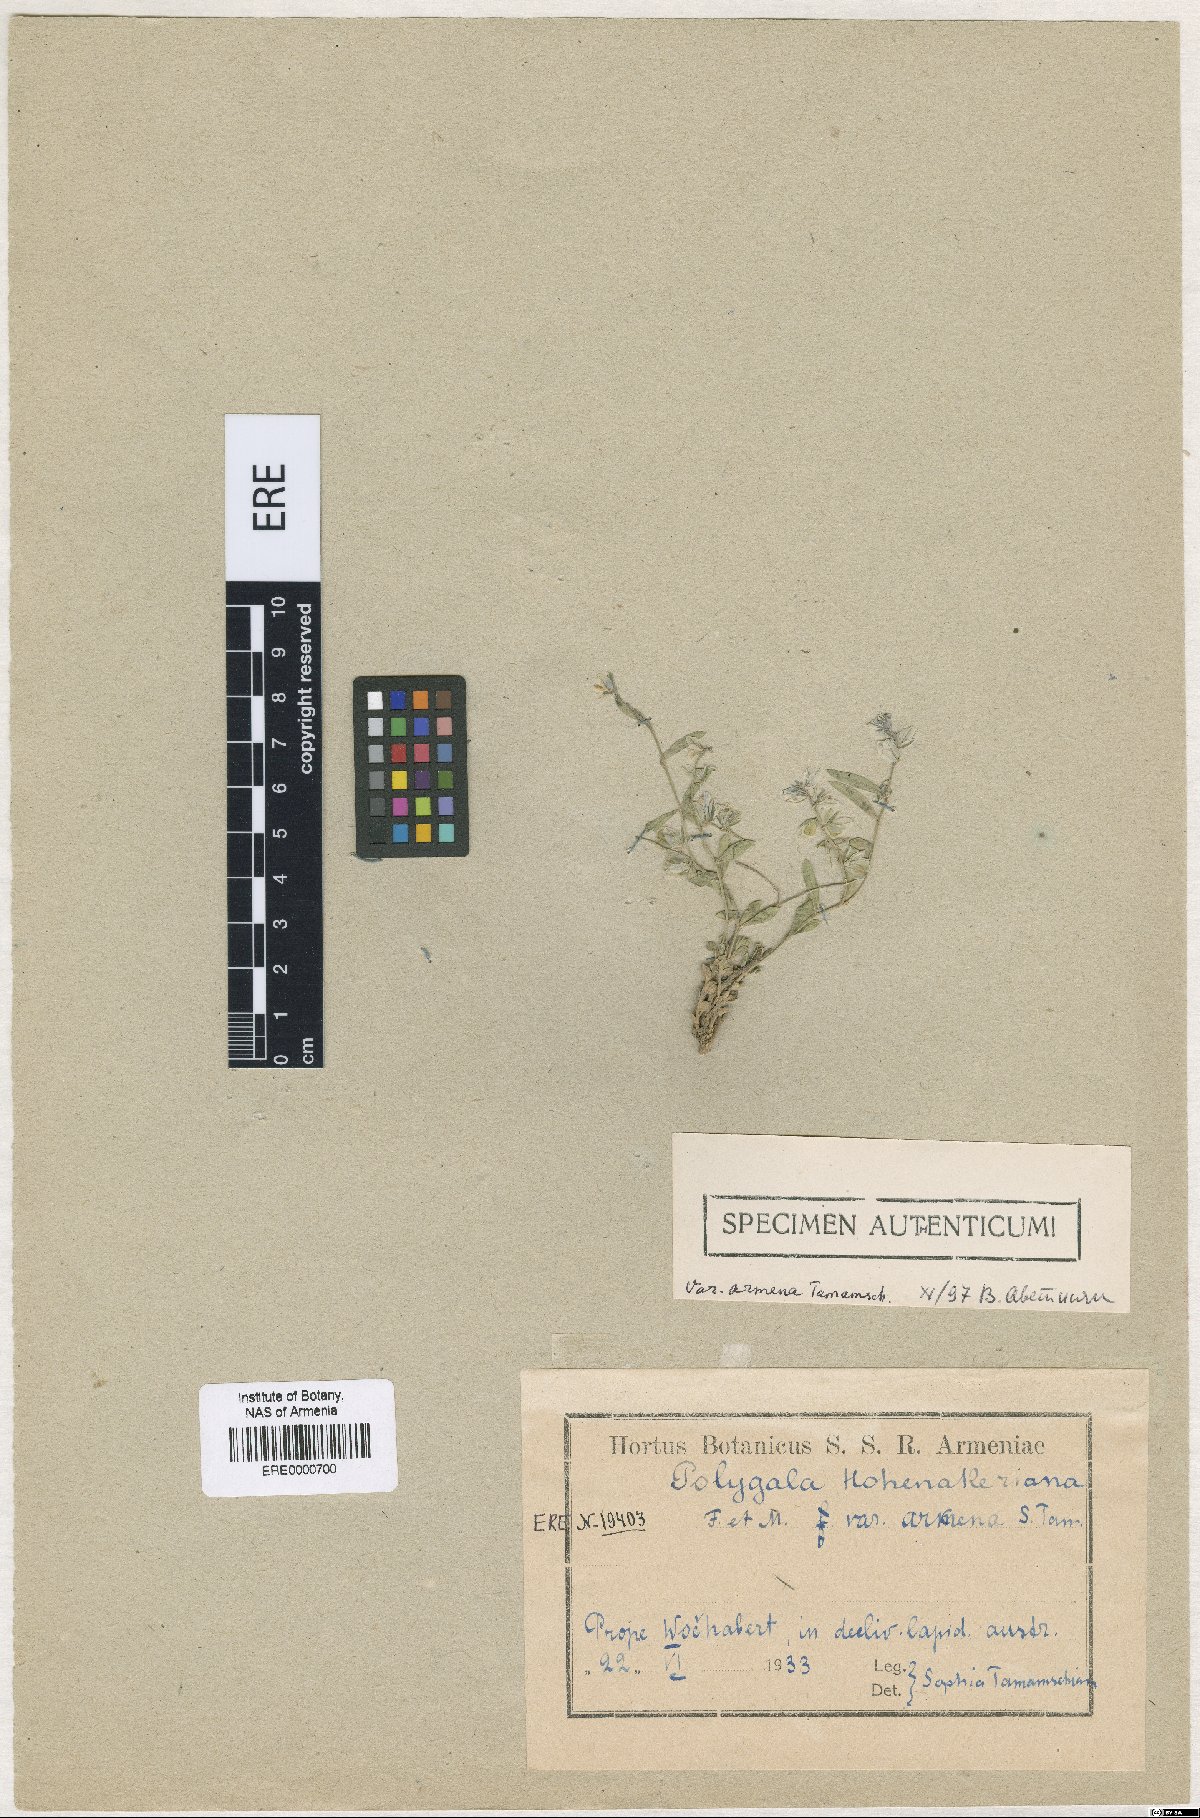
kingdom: Plantae
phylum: Tracheophyta
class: Magnoliopsida
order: Fabales
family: Polygalaceae
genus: Polygala
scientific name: Polygala hohenackeriana
